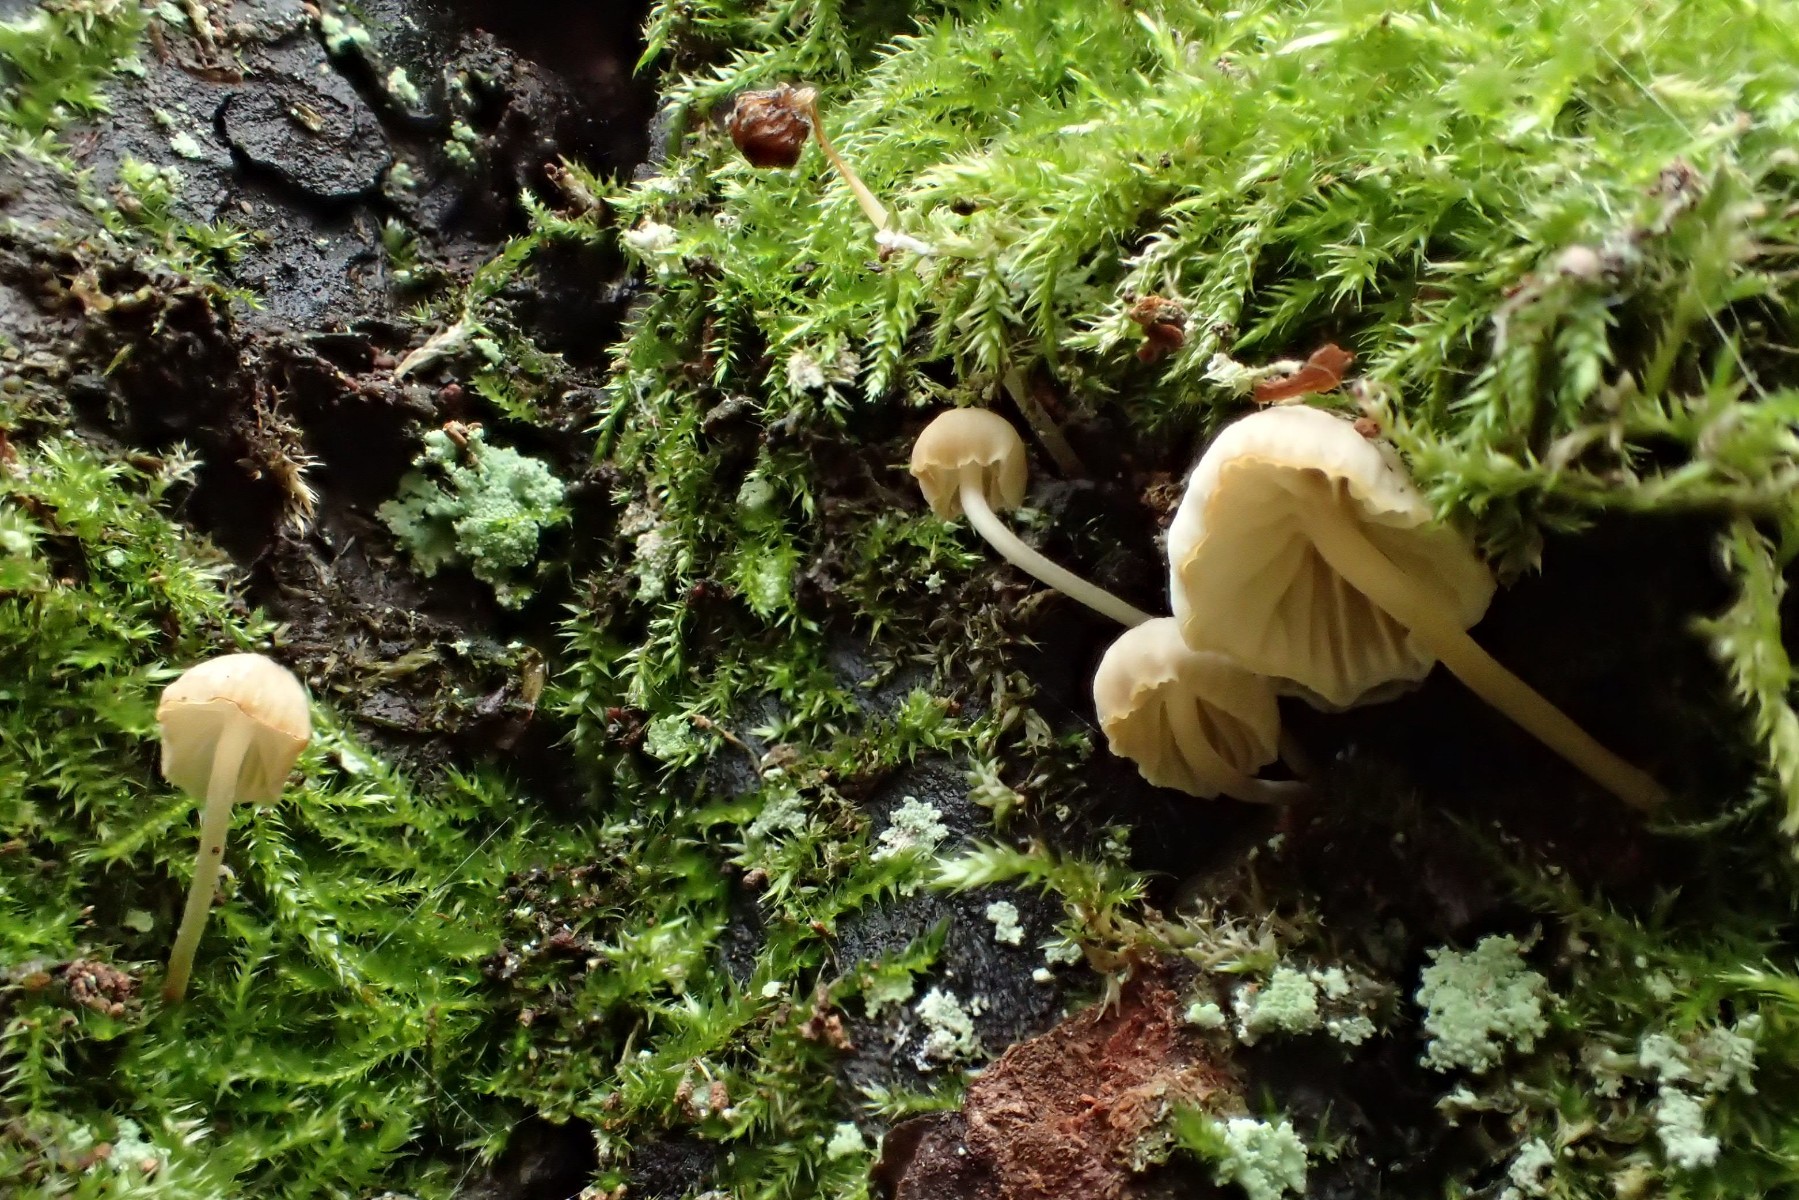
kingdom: Fungi
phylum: Basidiomycota
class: Agaricomycetes
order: Agaricales
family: Porotheleaceae
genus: Phloeomana
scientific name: Phloeomana speirea
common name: kvist-huesvamp
